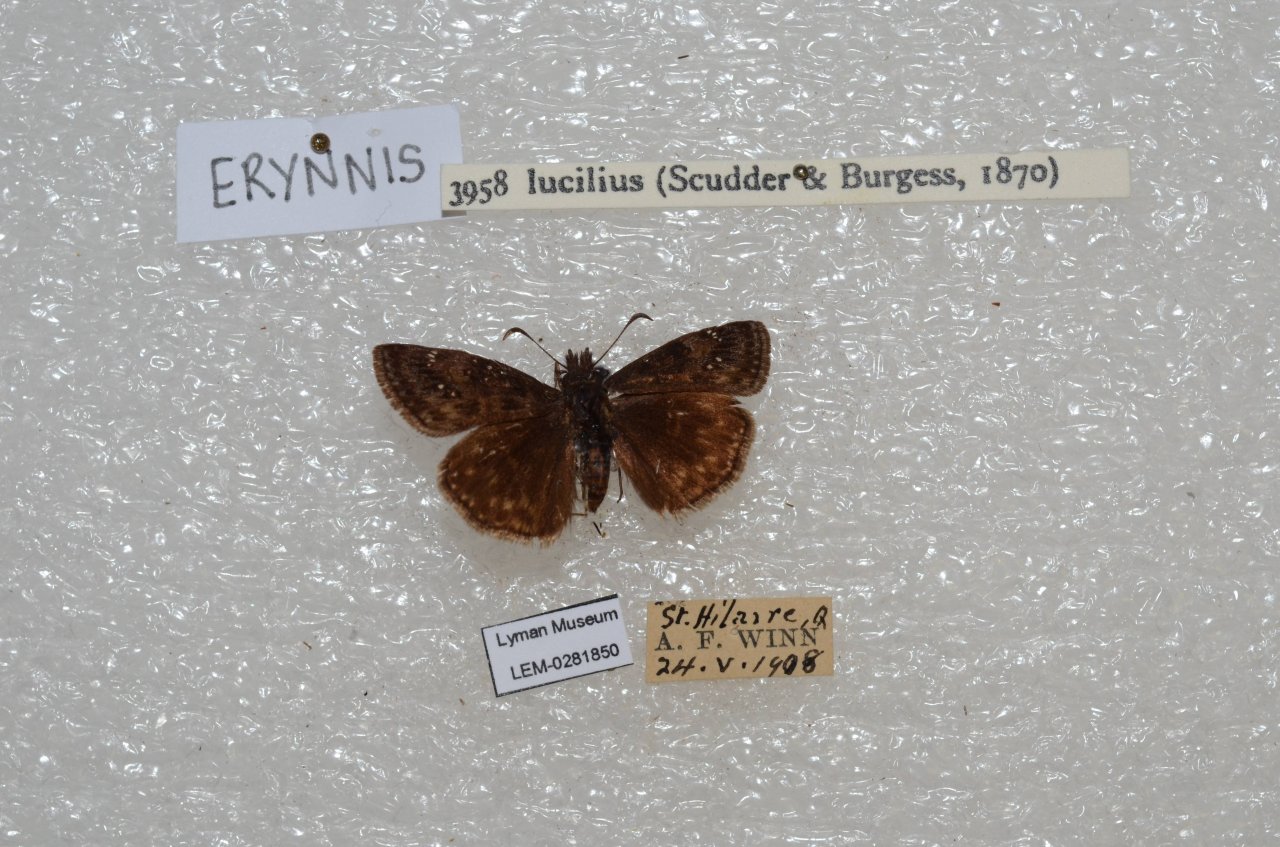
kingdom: Animalia
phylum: Arthropoda
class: Insecta
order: Lepidoptera
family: Hesperiidae
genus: Gesta
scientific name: Gesta
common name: Columbine Duskywing
